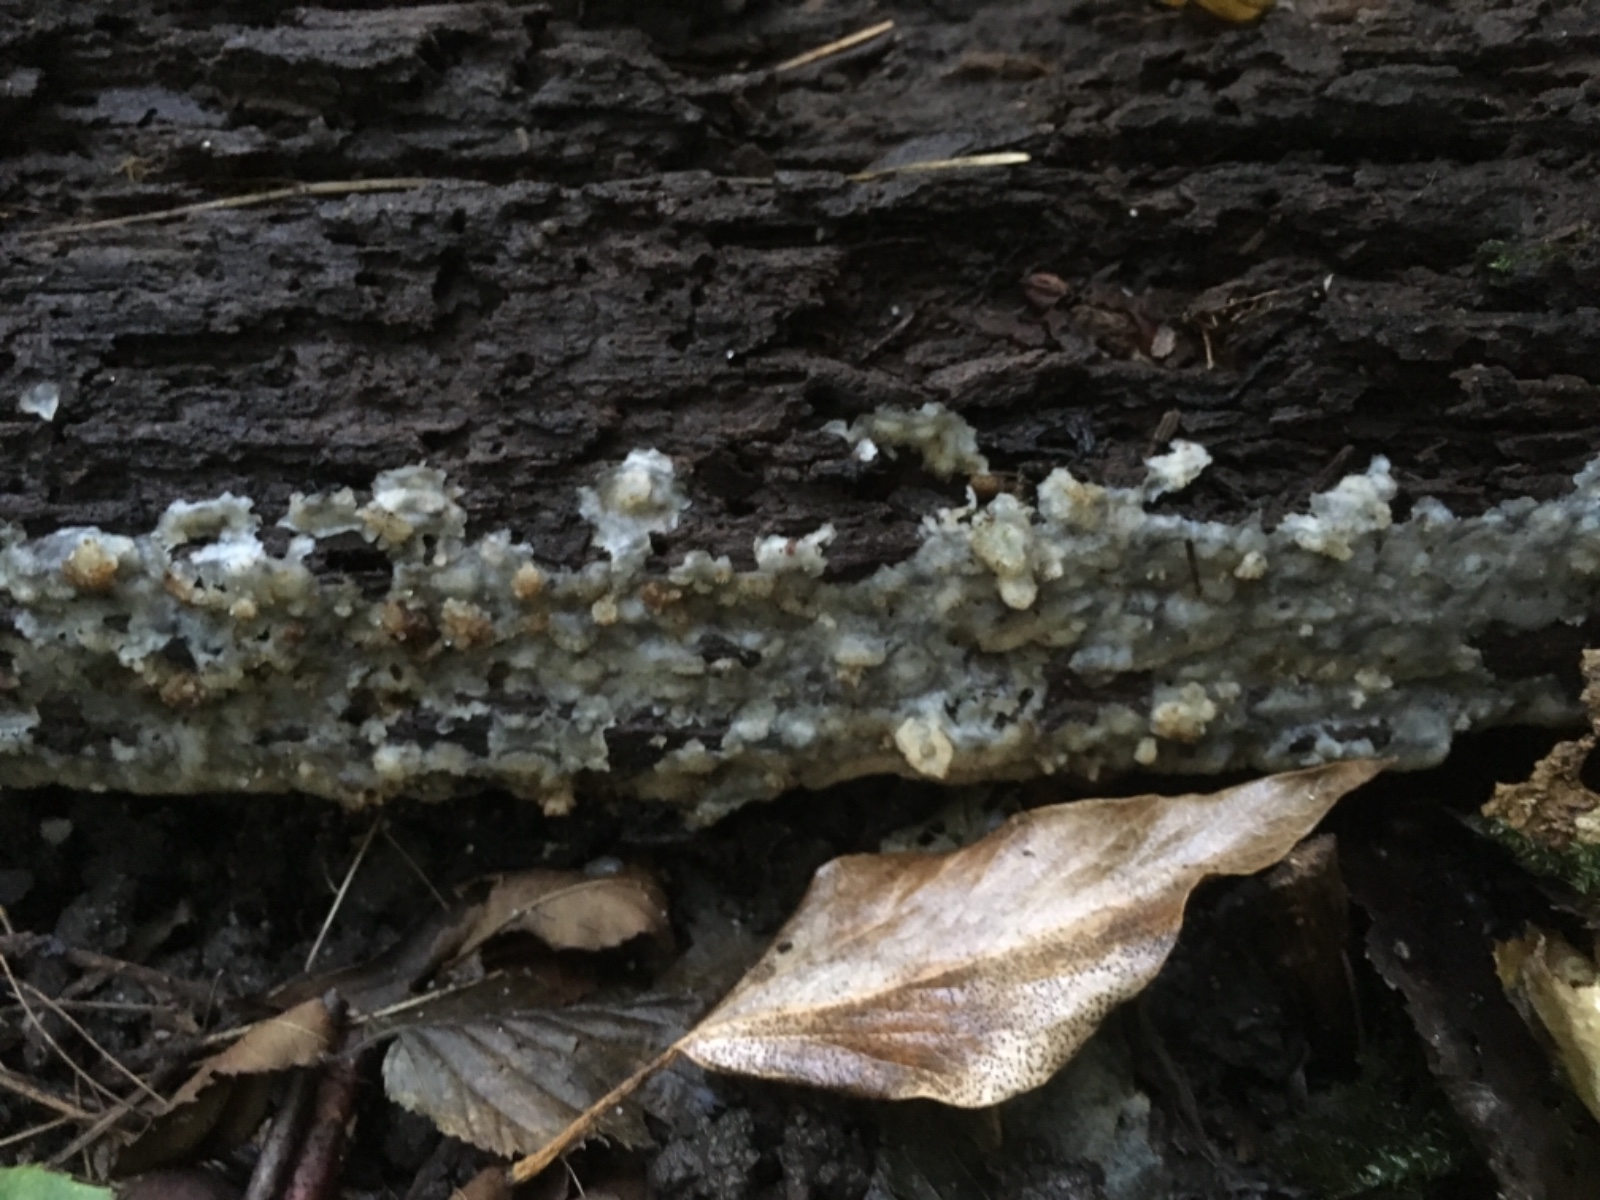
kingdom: Fungi
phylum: Basidiomycota
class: Agaricomycetes
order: Polyporales
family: Meruliaceae
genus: Physisporinus
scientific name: Physisporinus
